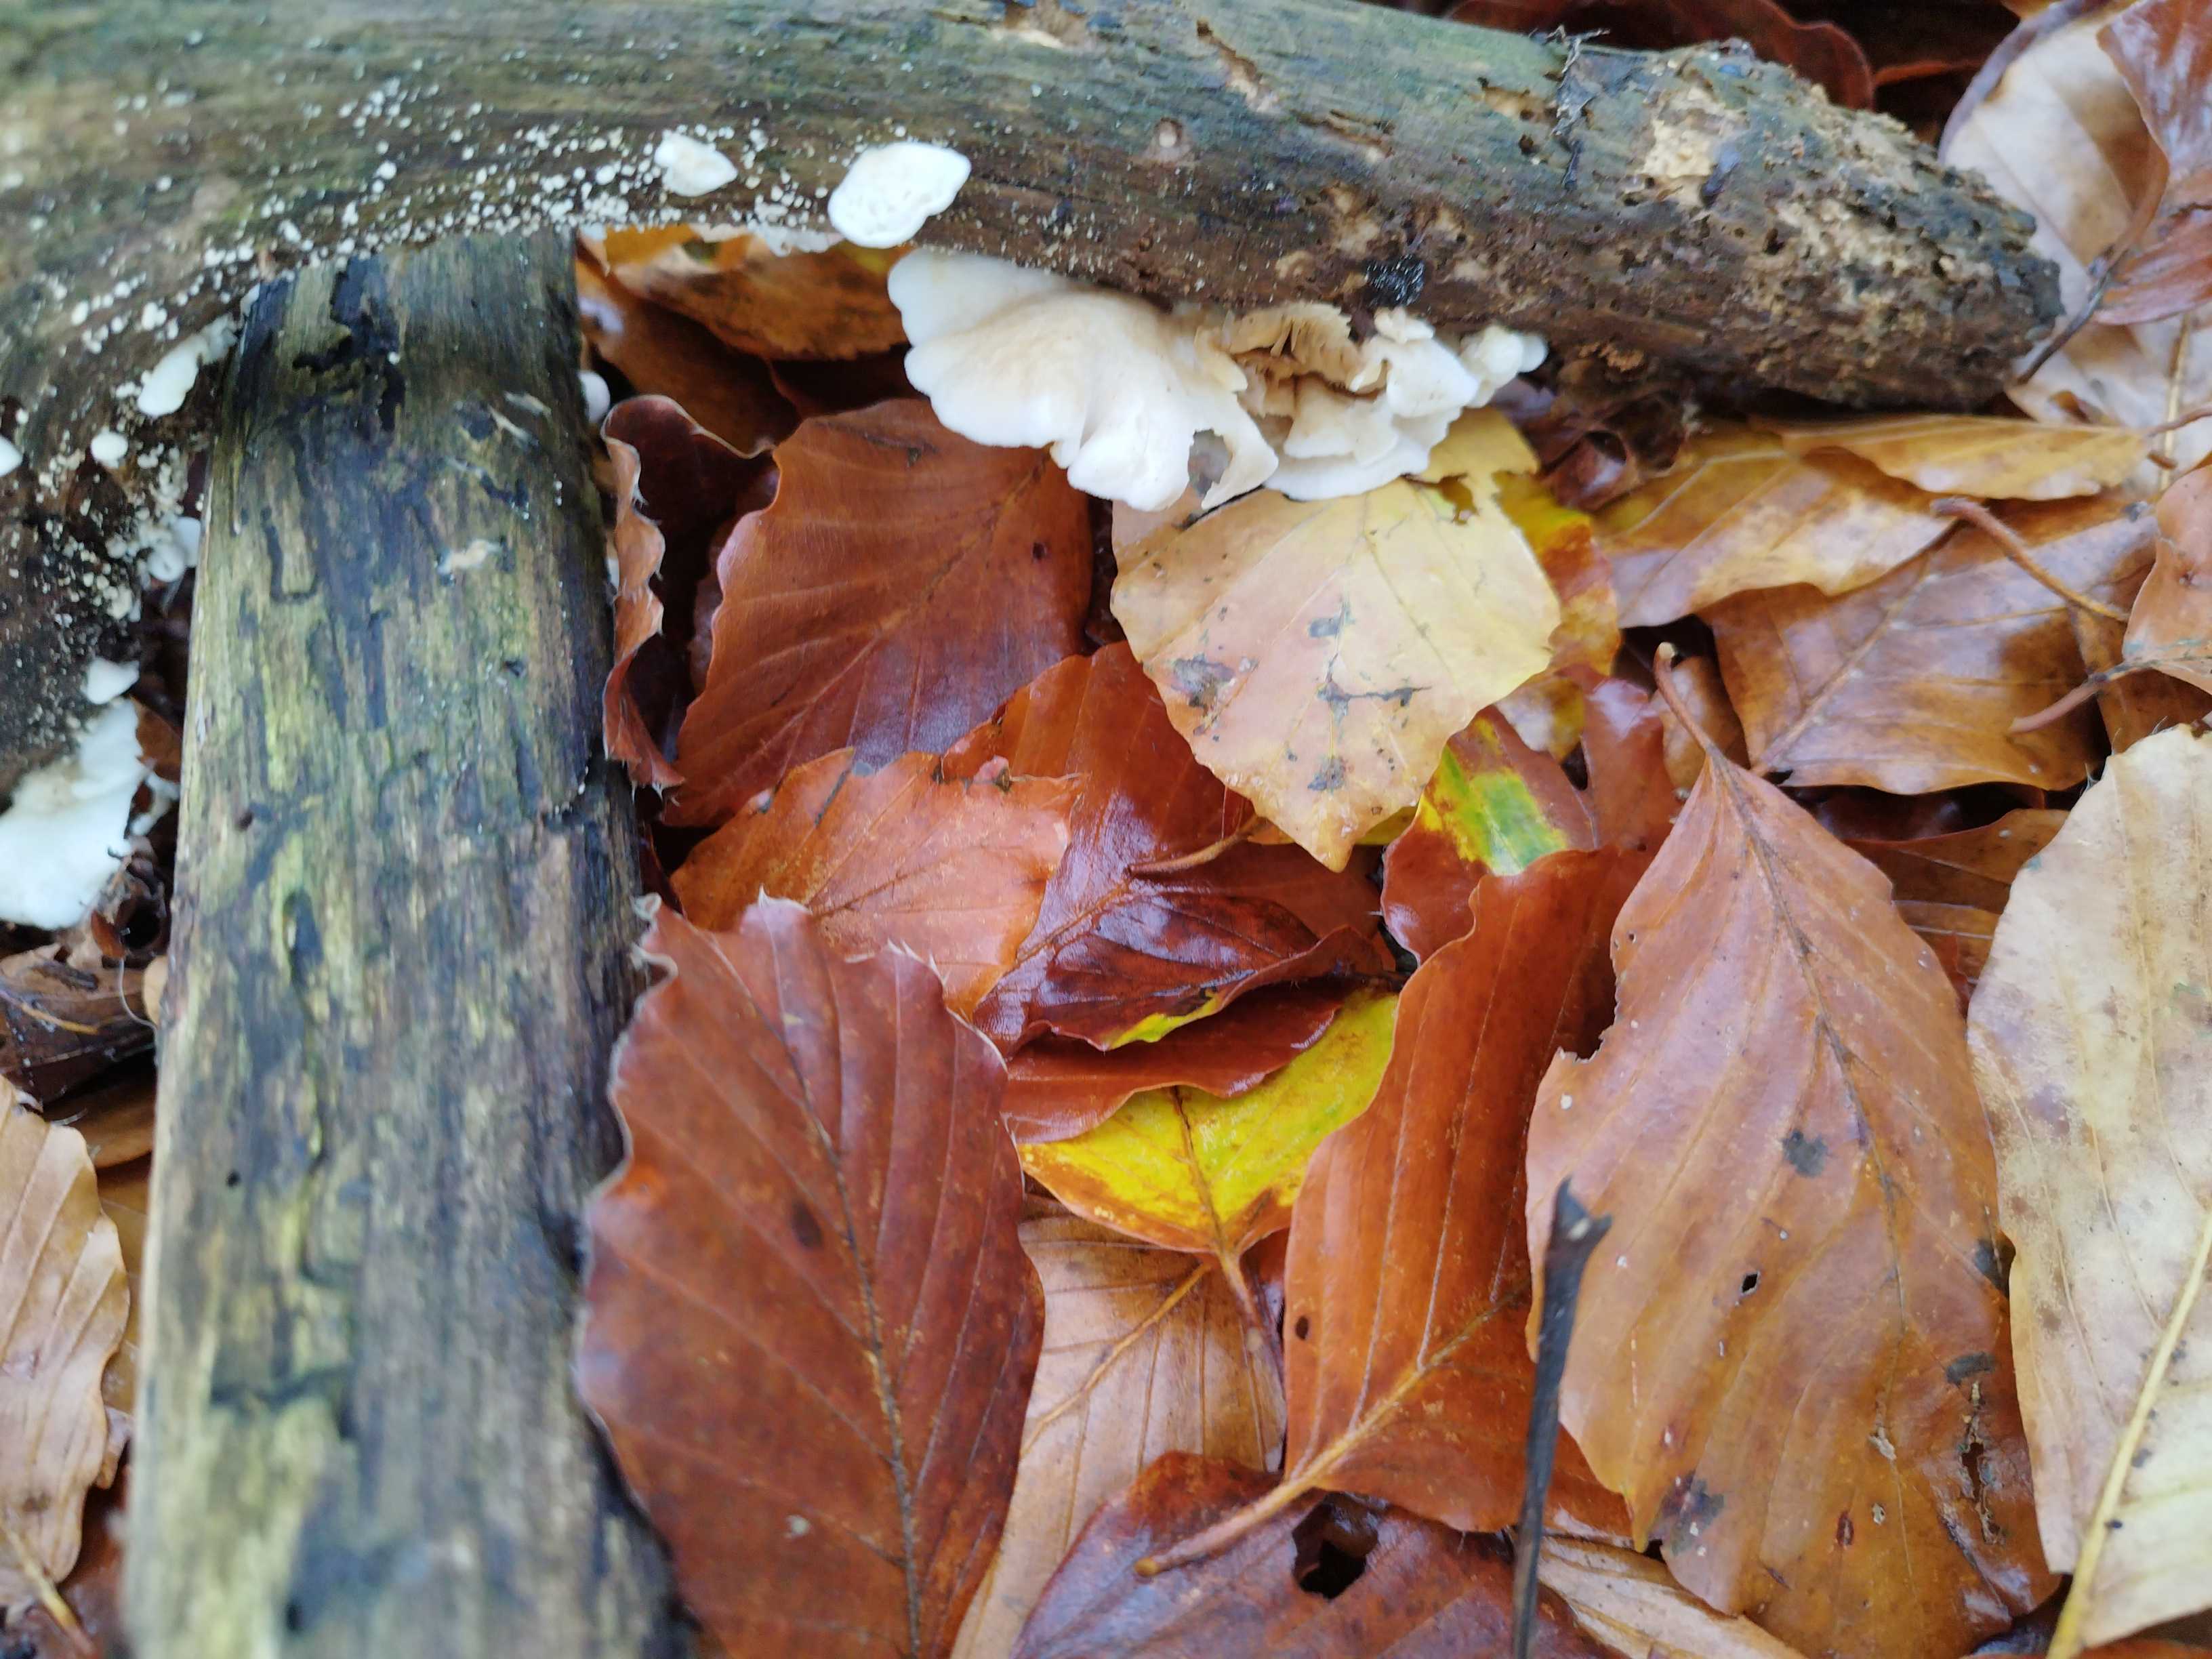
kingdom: Fungi
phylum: Basidiomycota
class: Agaricomycetes
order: Agaricales
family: Crepidotaceae
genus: Crepidotus
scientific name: Crepidotus
